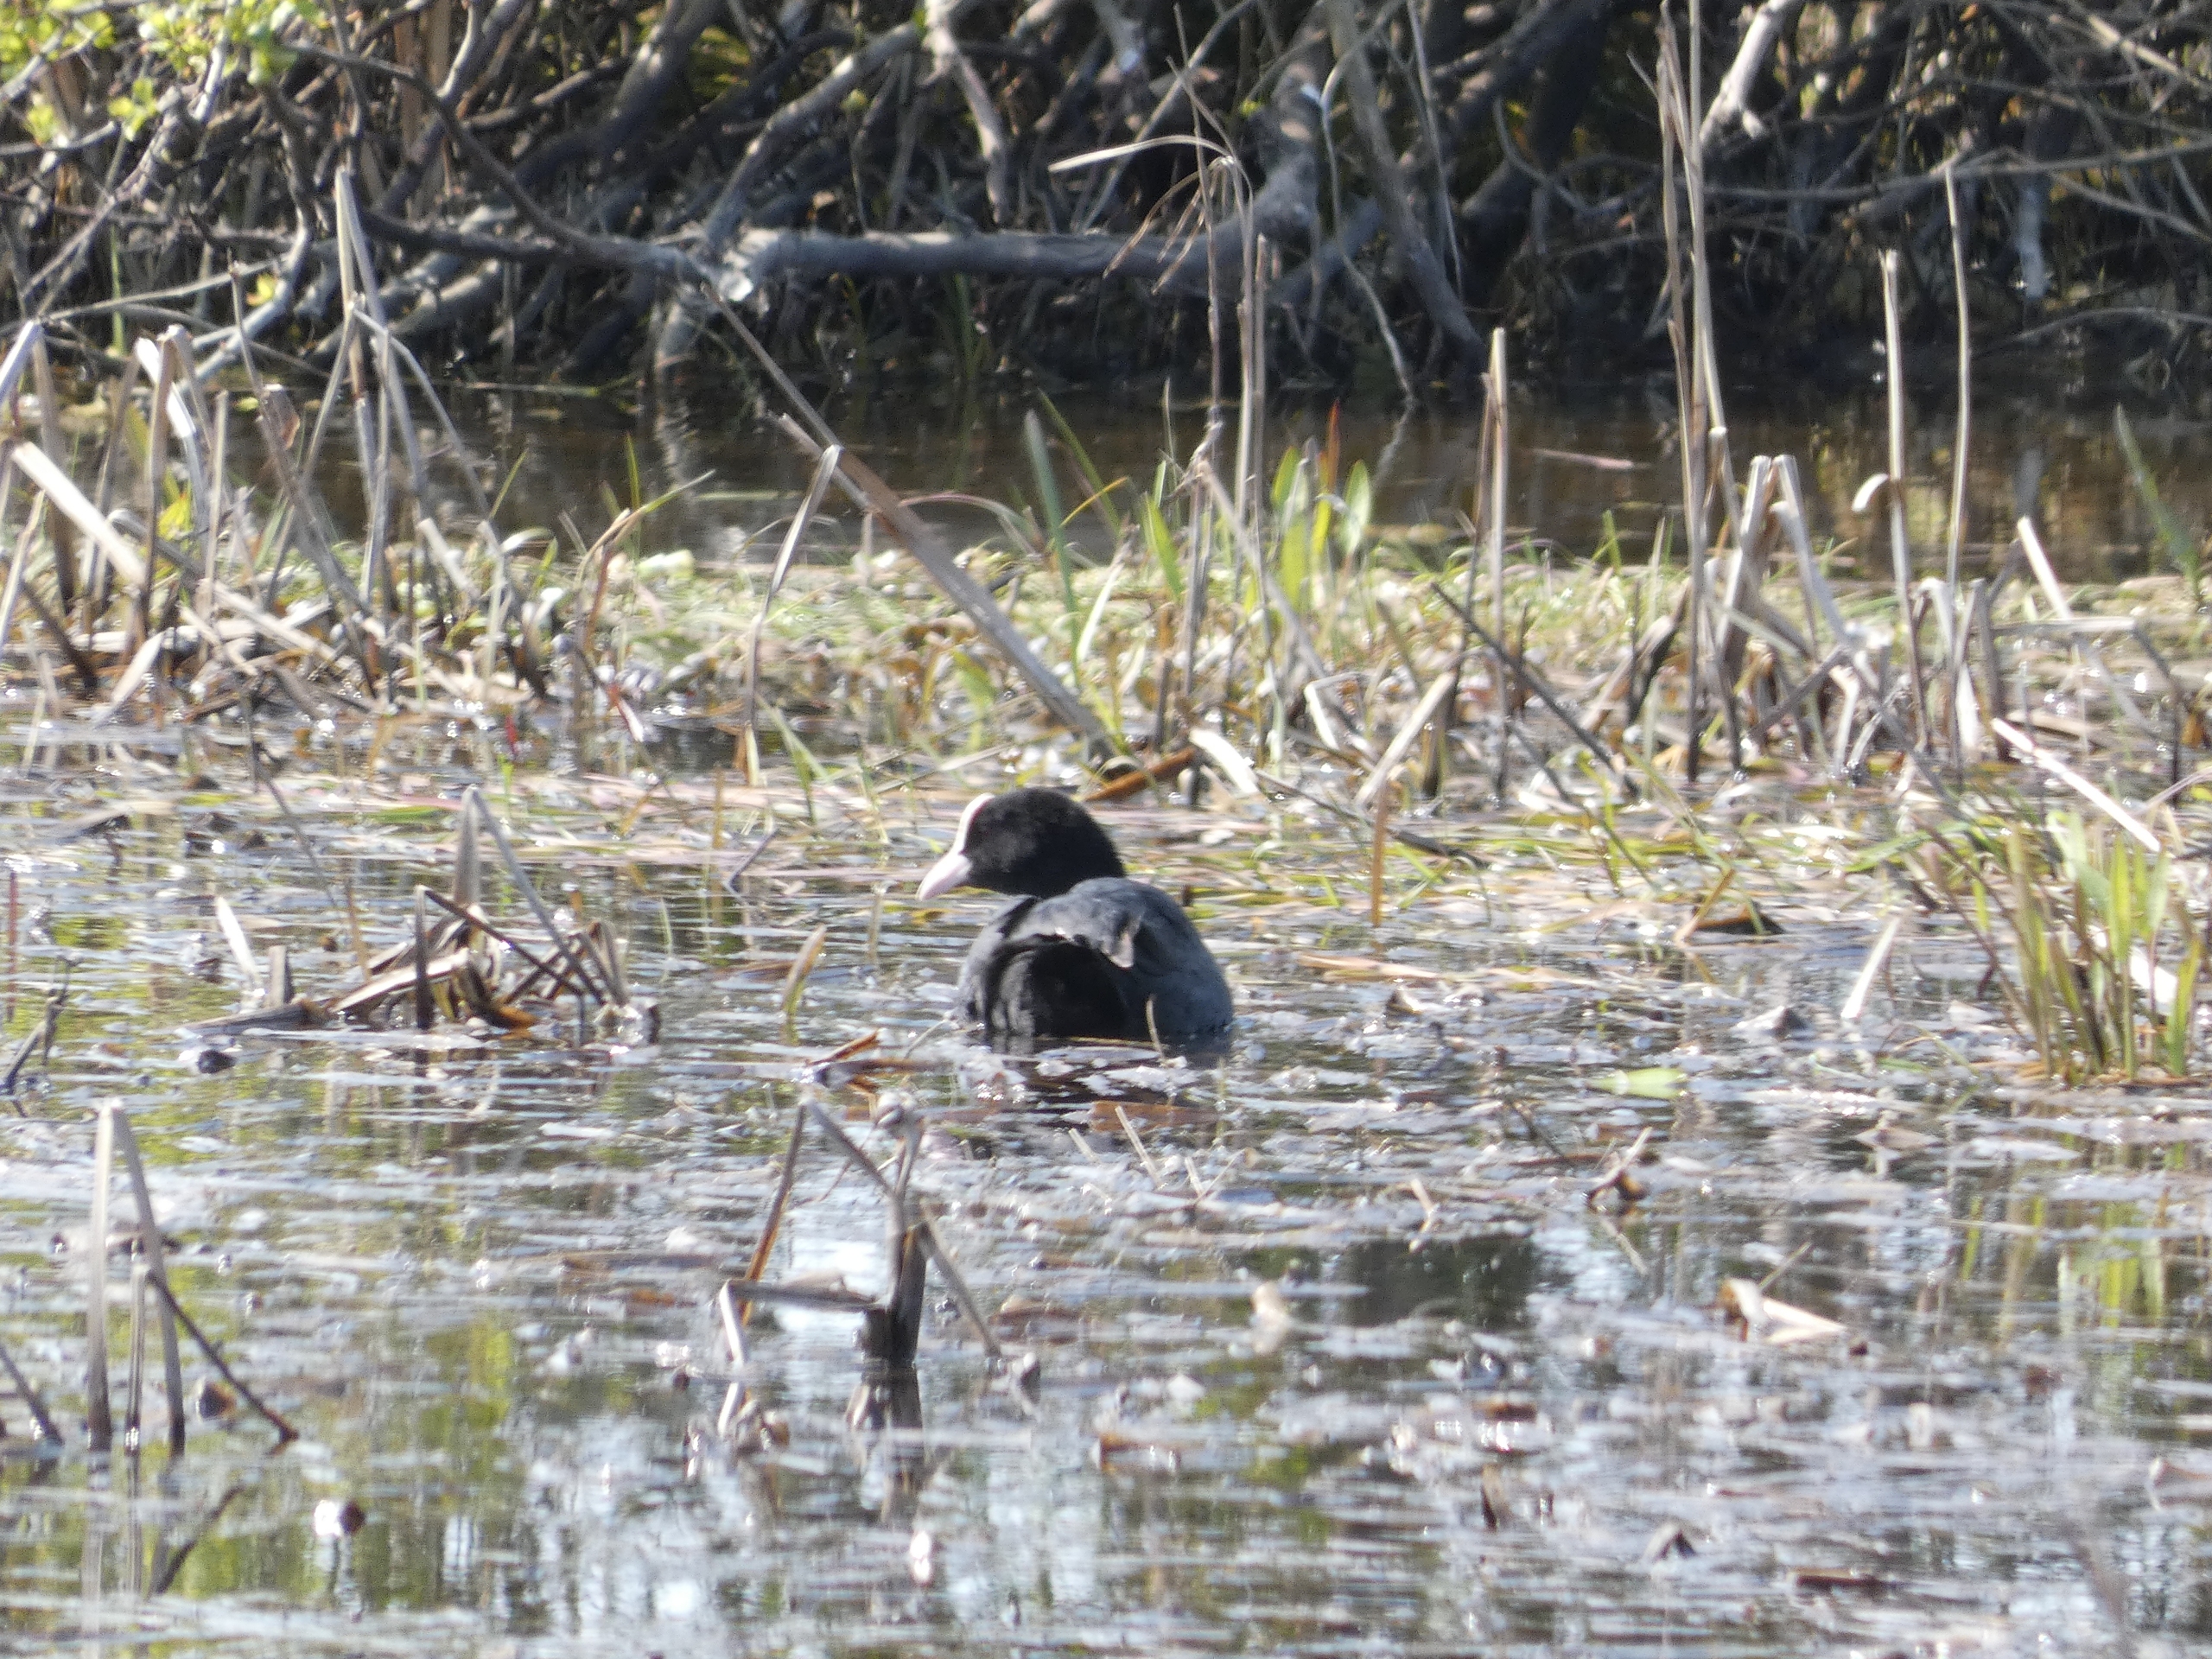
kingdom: Animalia
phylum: Chordata
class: Aves
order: Gruiformes
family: Rallidae
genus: Fulica
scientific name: Fulica atra
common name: Blishøne
